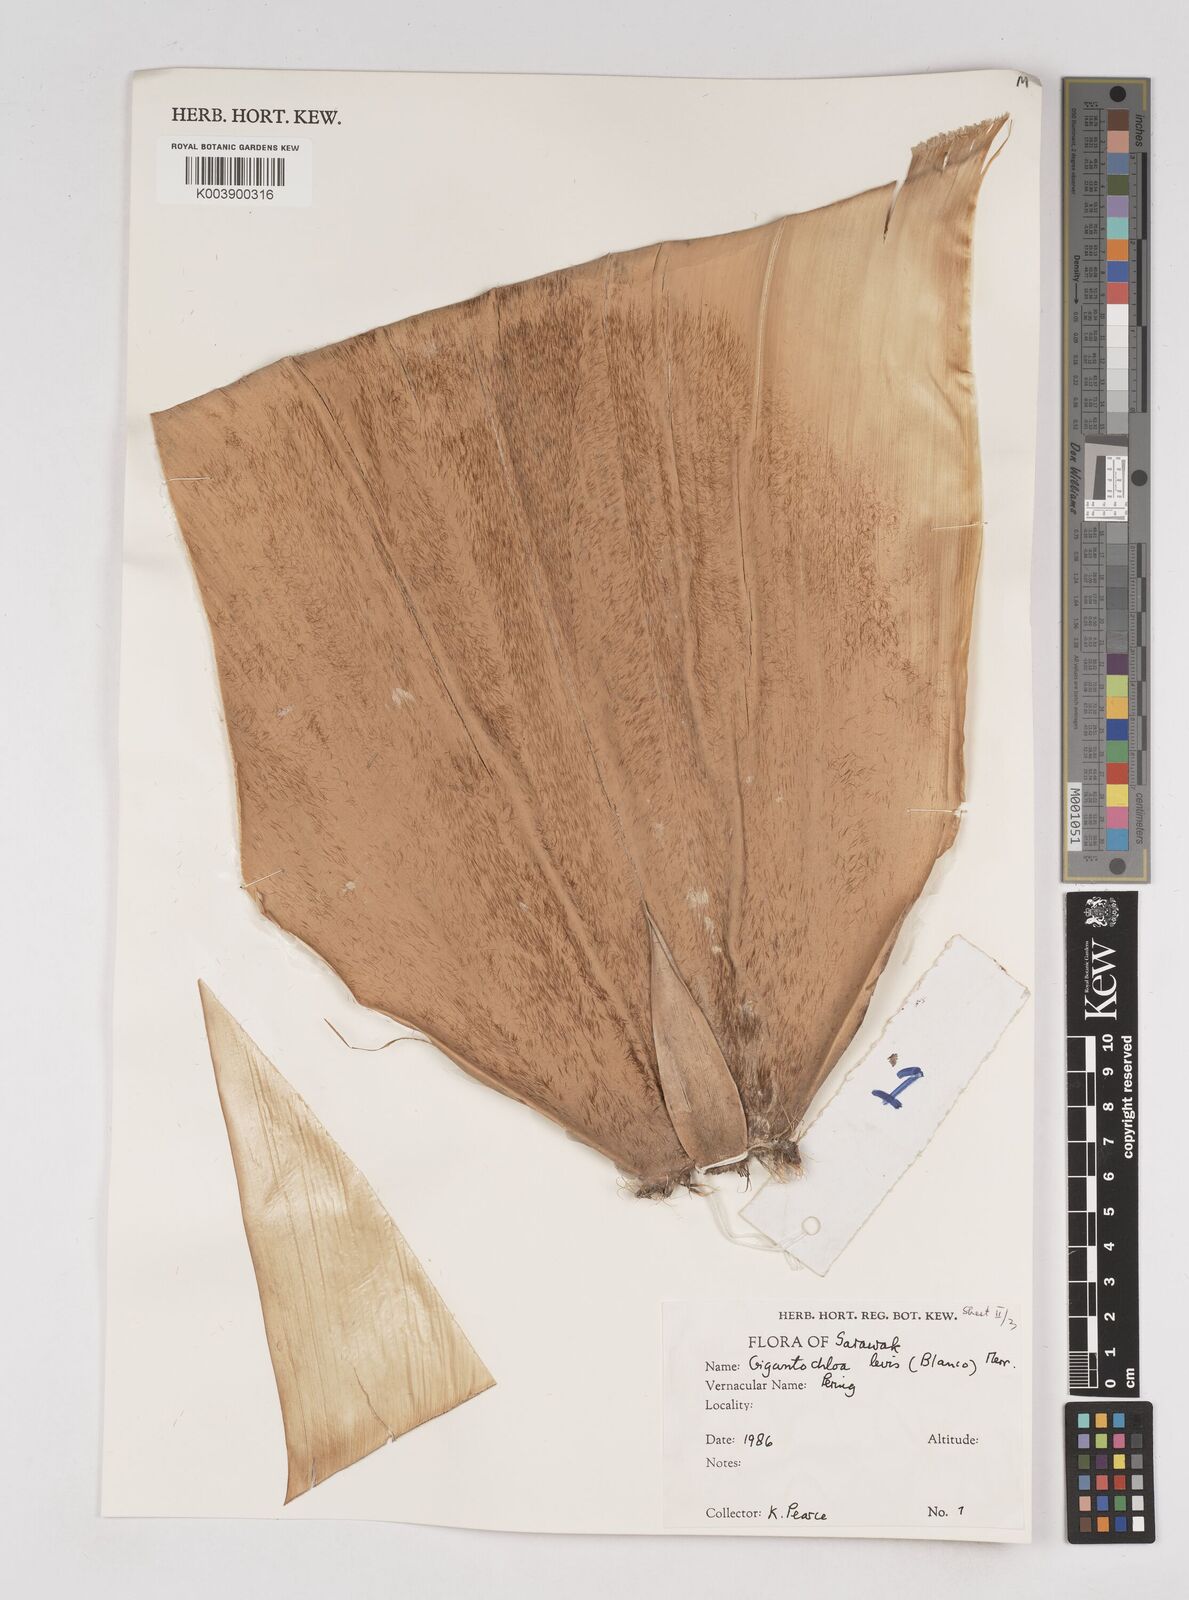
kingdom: Plantae
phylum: Tracheophyta
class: Liliopsida
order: Poales
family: Poaceae
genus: Gigantochloa
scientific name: Gigantochloa levis
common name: Smooth-shoot gigantochloa
